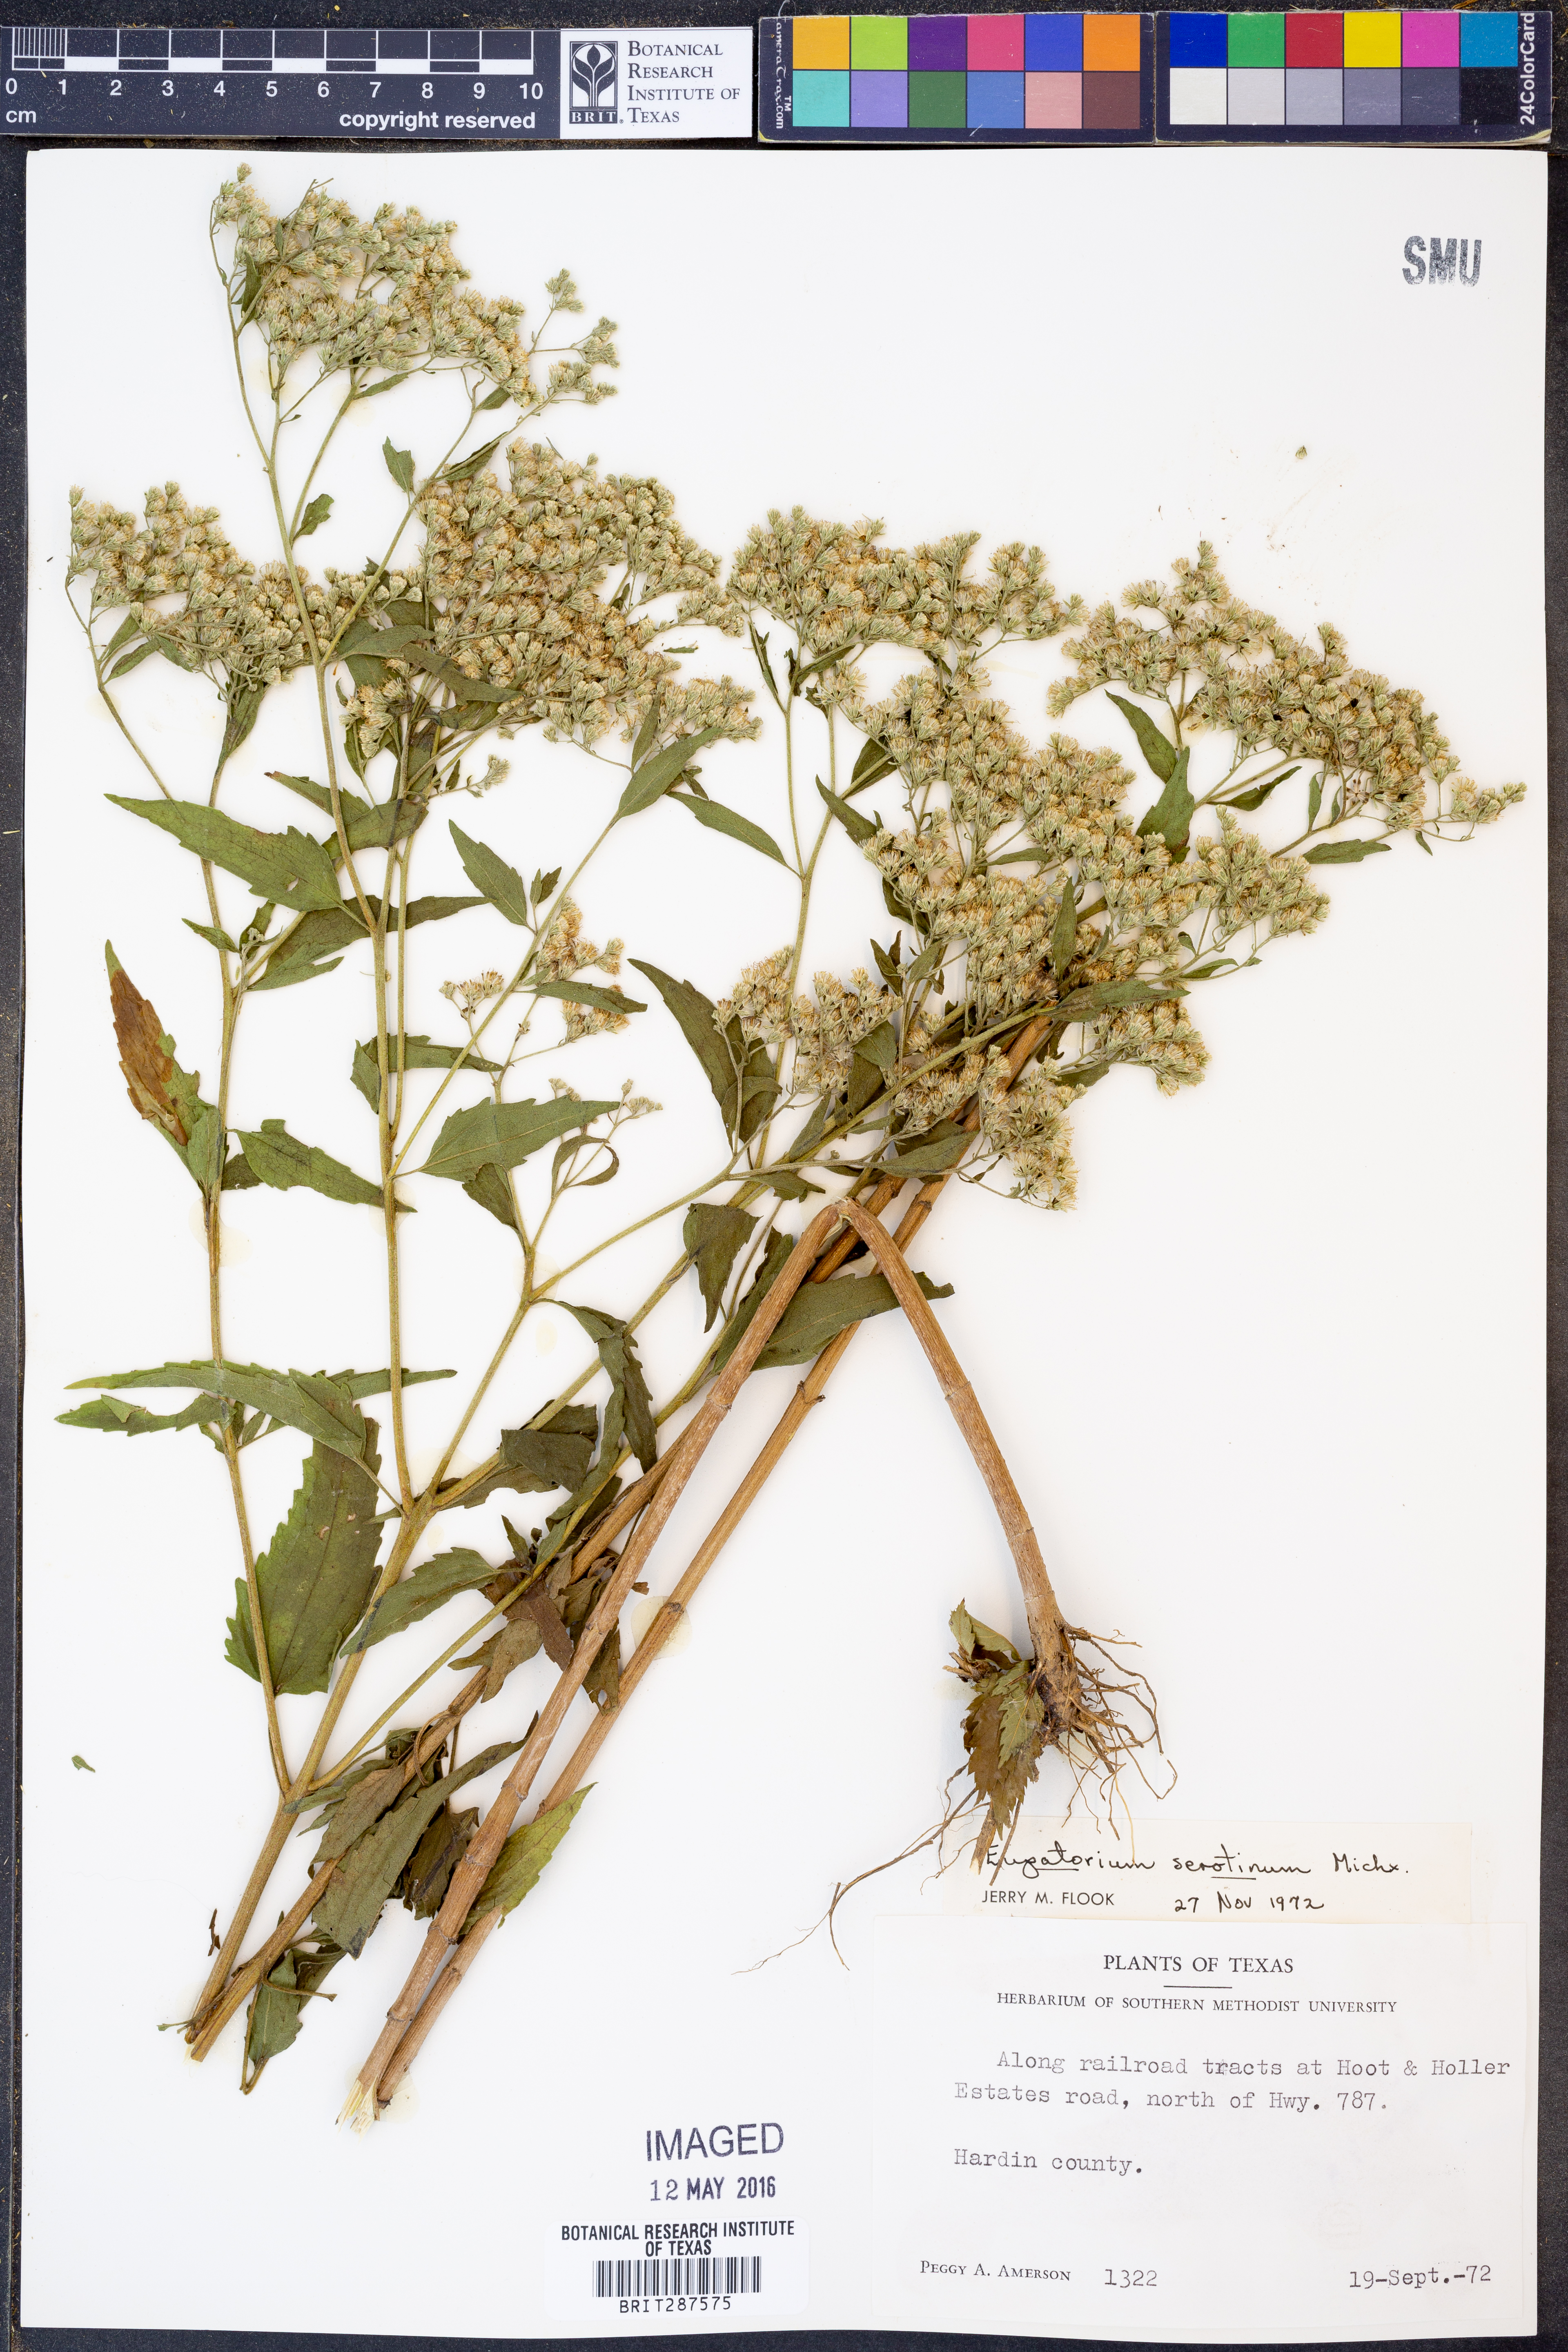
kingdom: Plantae
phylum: Tracheophyta
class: Magnoliopsida
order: Asterales
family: Asteraceae
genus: Eupatorium
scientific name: Eupatorium serotinum
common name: Late boneset
